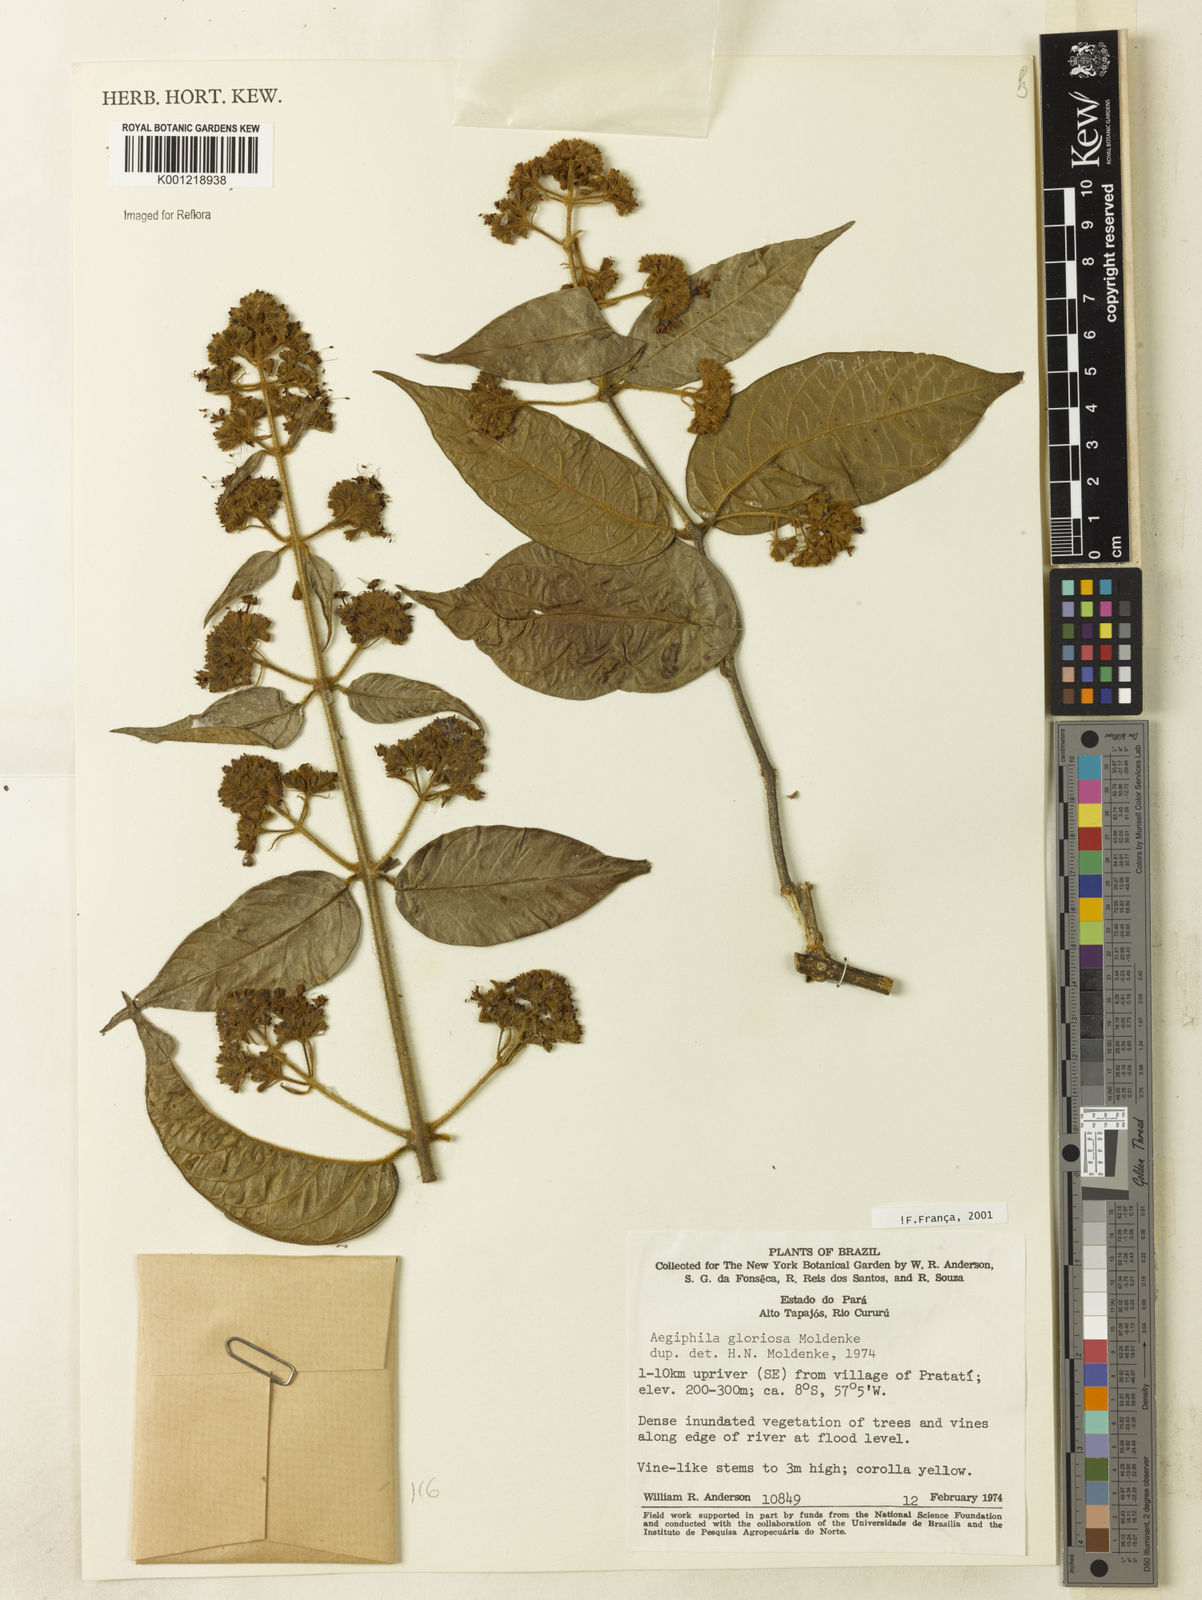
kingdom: Plantae
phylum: Tracheophyta
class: Magnoliopsida
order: Lamiales
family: Lamiaceae
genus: Aegiphila
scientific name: Aegiphila gloriosa
